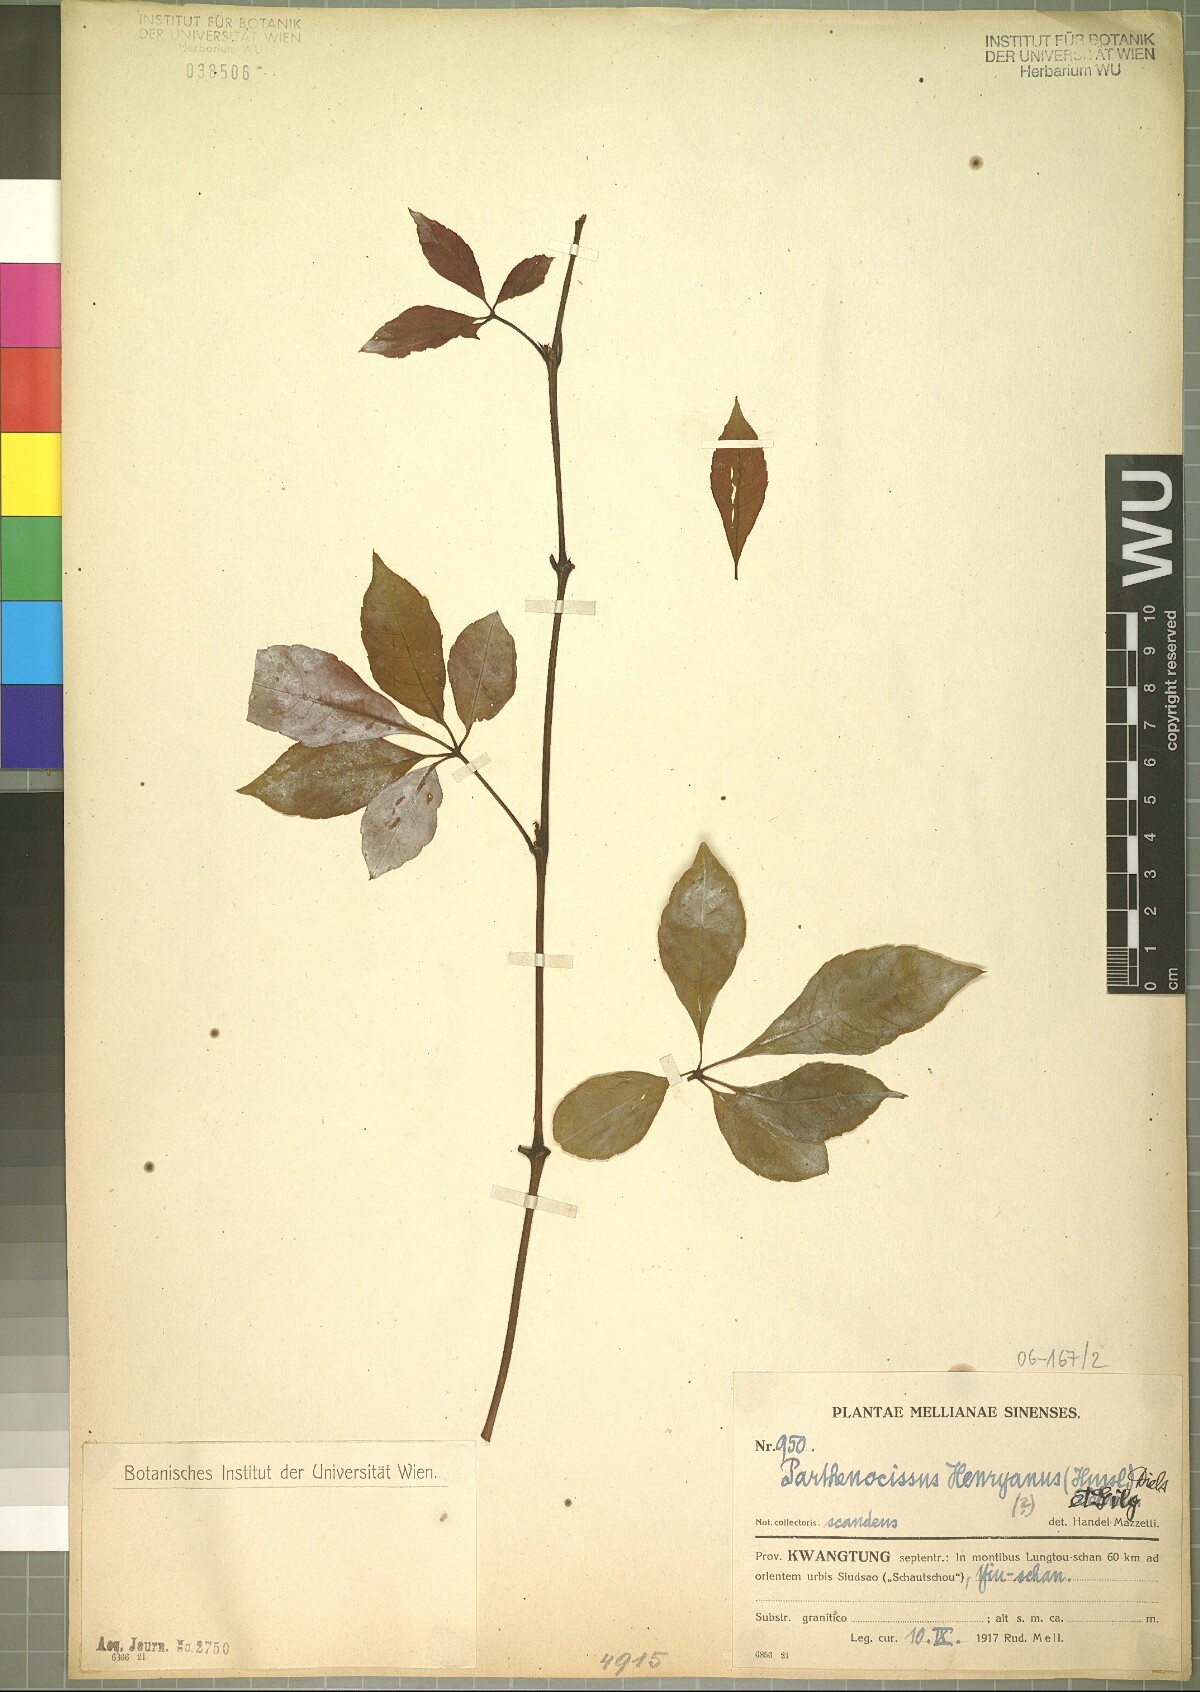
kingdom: Plantae
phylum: Tracheophyta
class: Magnoliopsida
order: Vitales
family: Vitaceae
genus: Parthenocissus
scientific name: Parthenocissus henryana
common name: Chinese virginia-creeper
